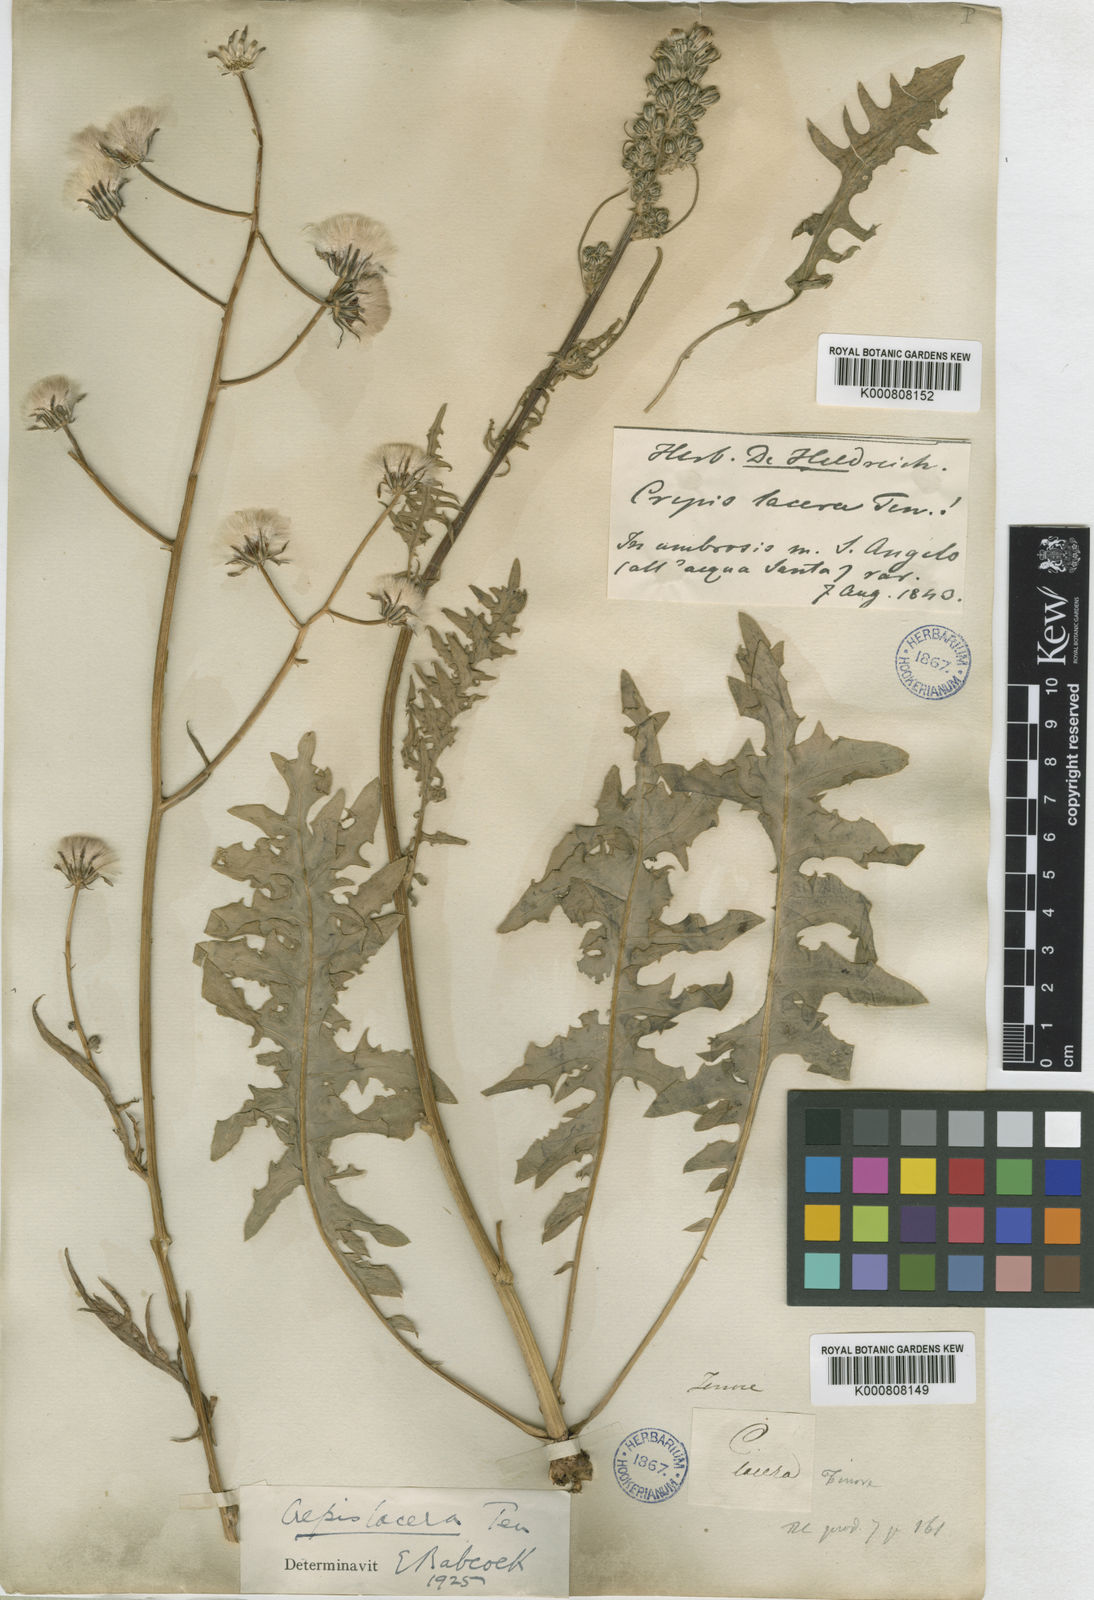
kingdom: Plantae
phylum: Tracheophyta
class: Magnoliopsida
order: Asterales
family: Asteraceae
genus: Crepis
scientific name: Crepis lacera
